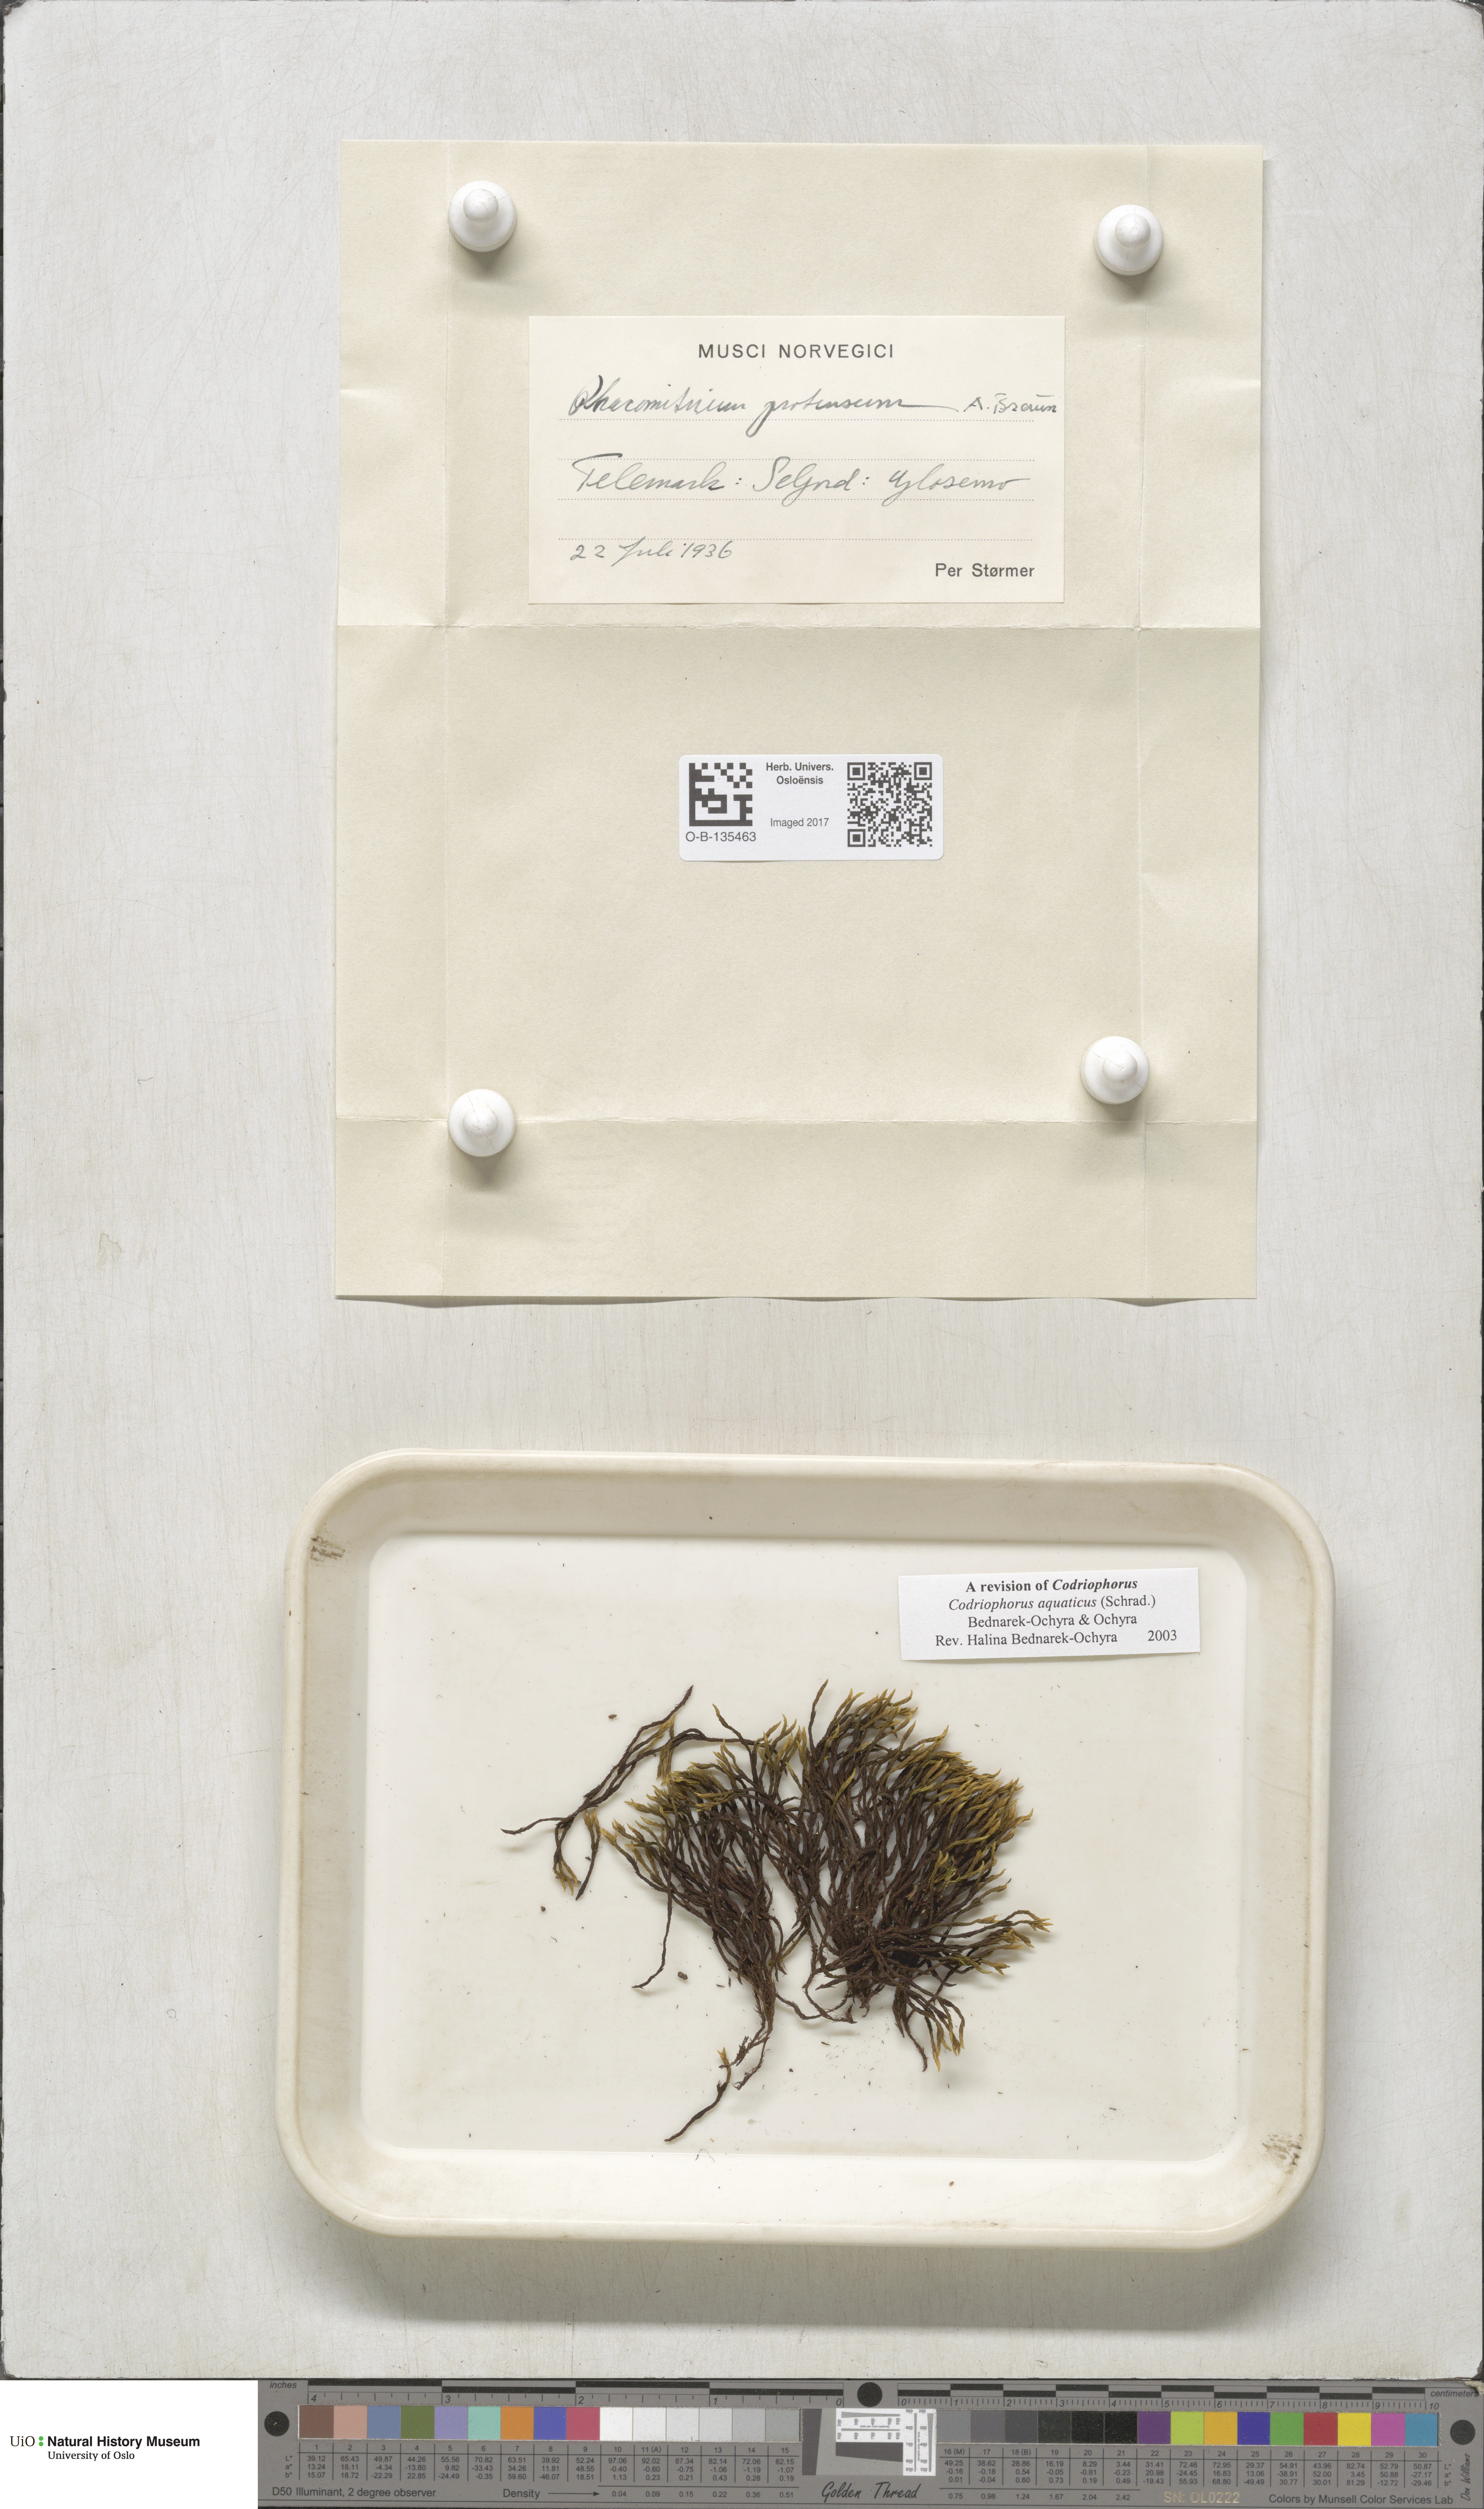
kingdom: Plantae
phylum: Bryophyta
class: Bryopsida
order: Grimmiales
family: Grimmiaceae
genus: Codriophorus
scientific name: Codriophorus aquaticus
